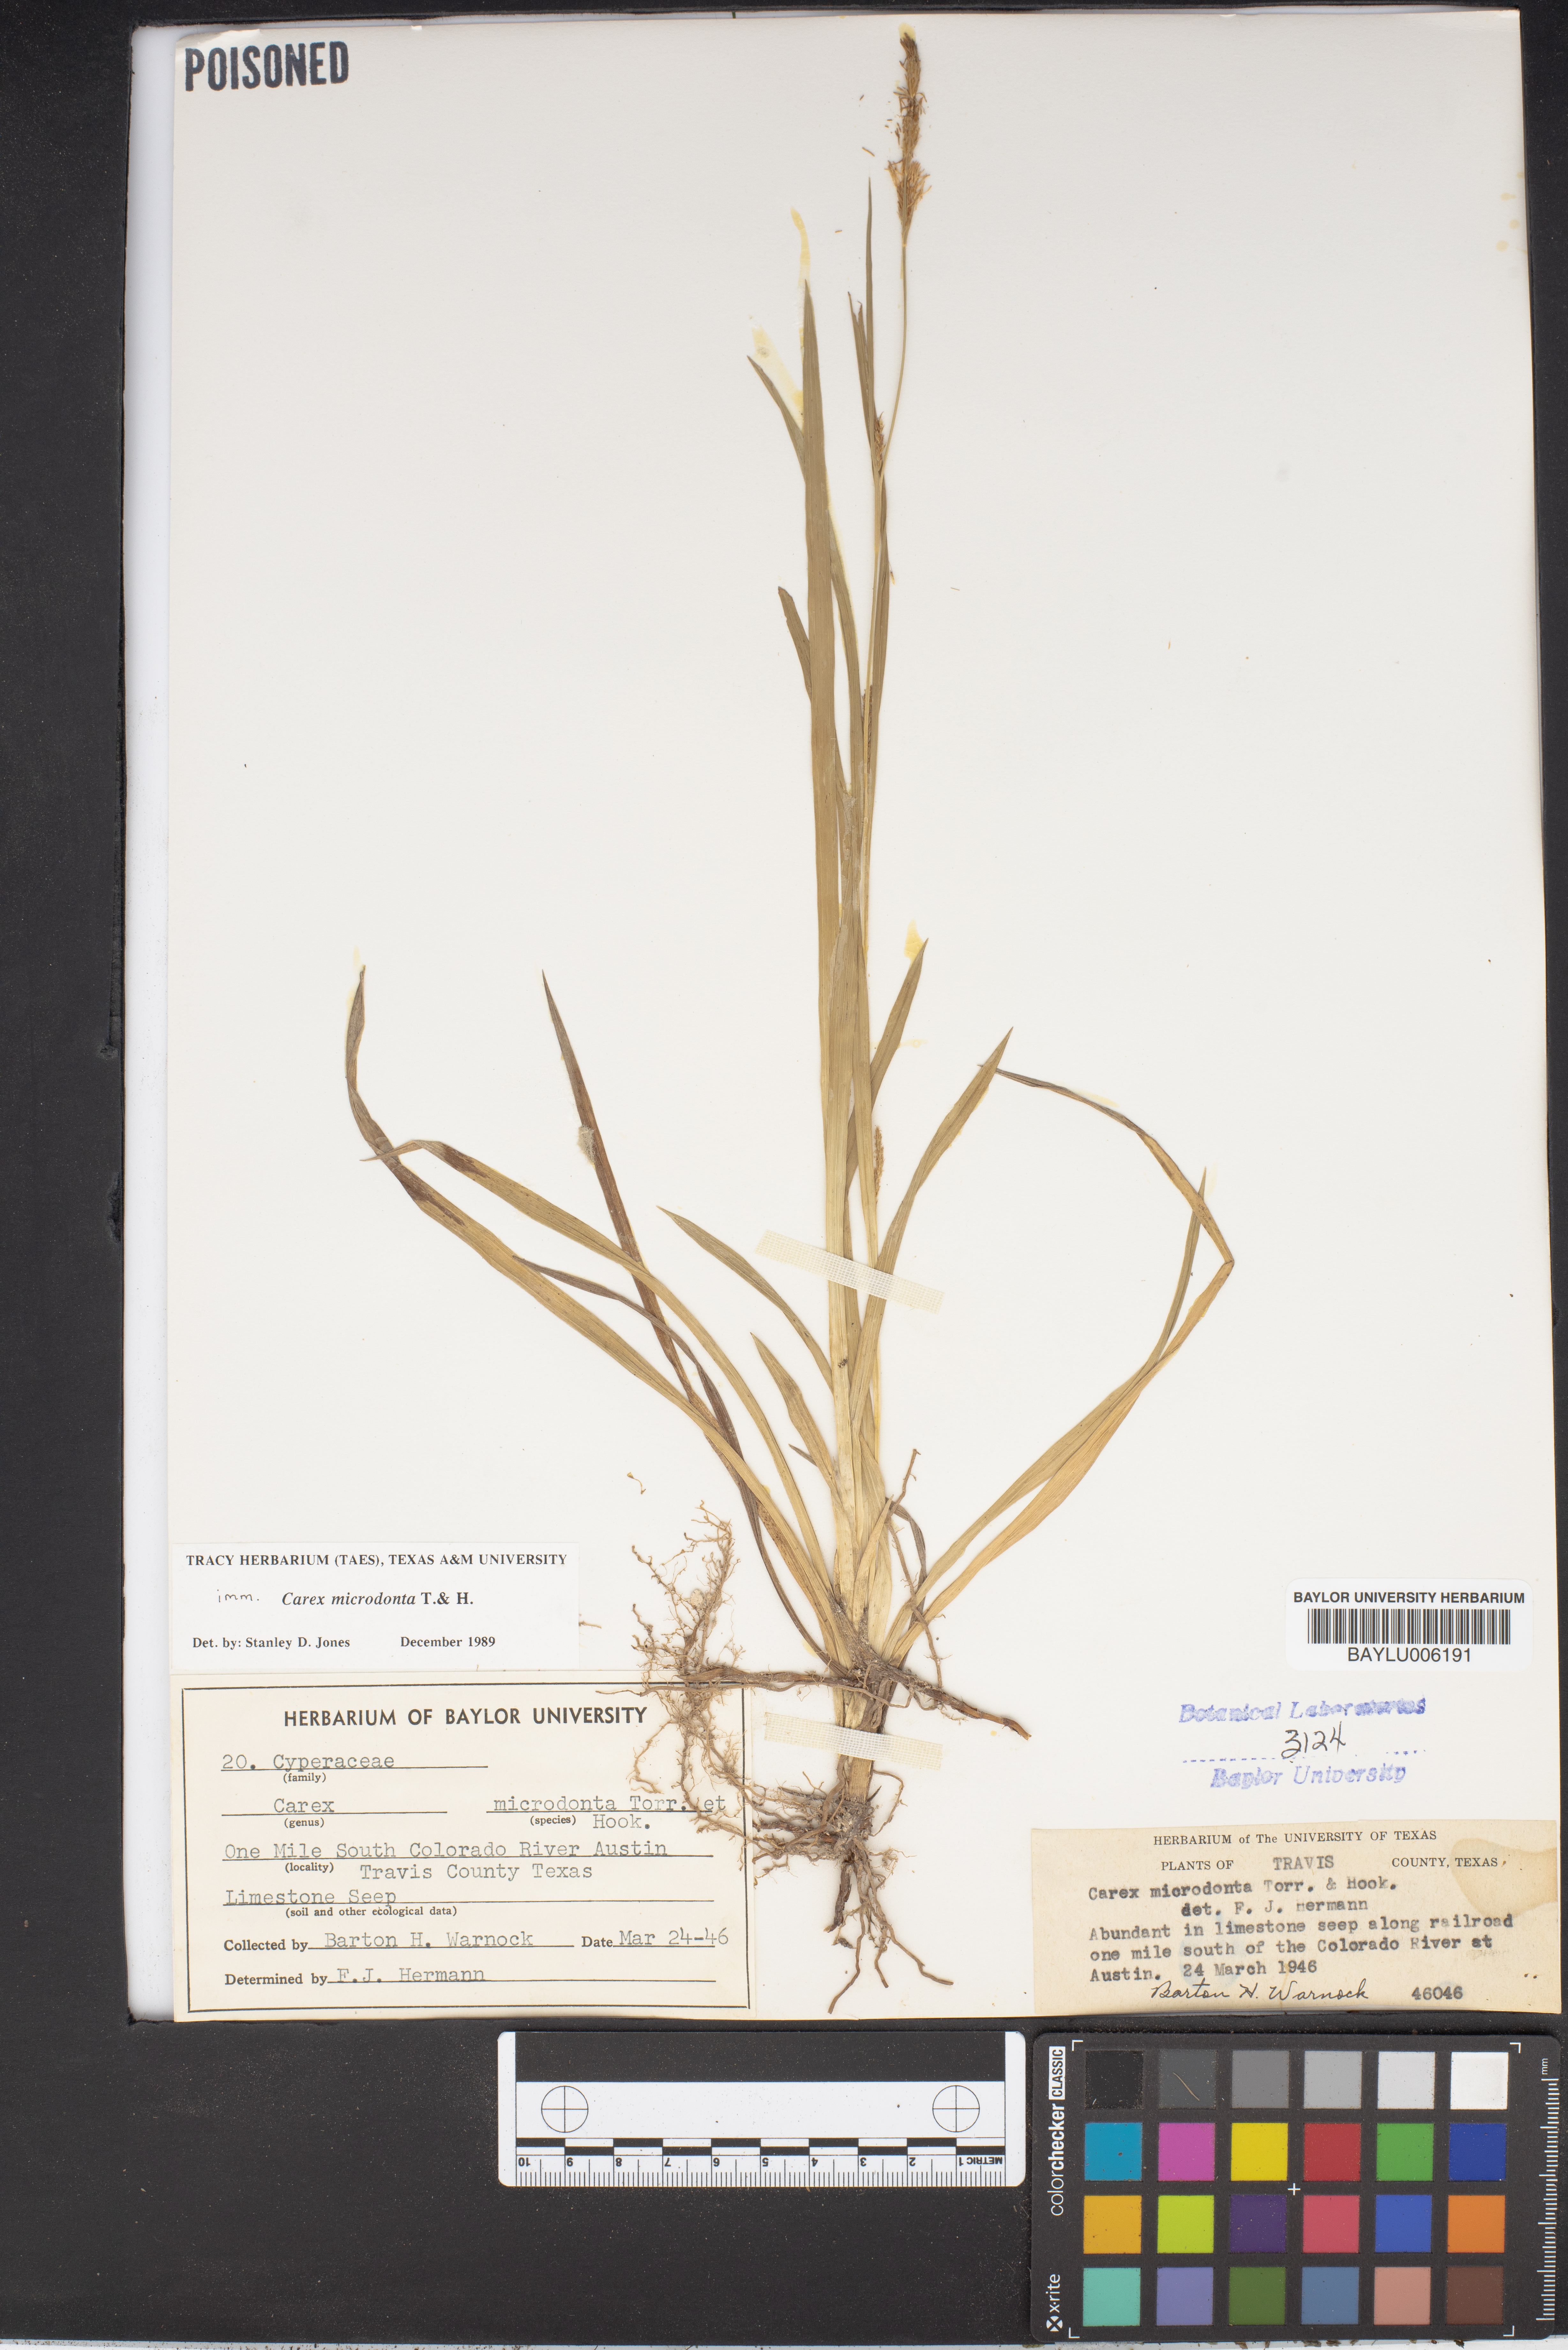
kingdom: Plantae
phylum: Tracheophyta
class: Liliopsida
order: Poales
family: Cyperaceae
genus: Carex
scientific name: Carex microdonta
